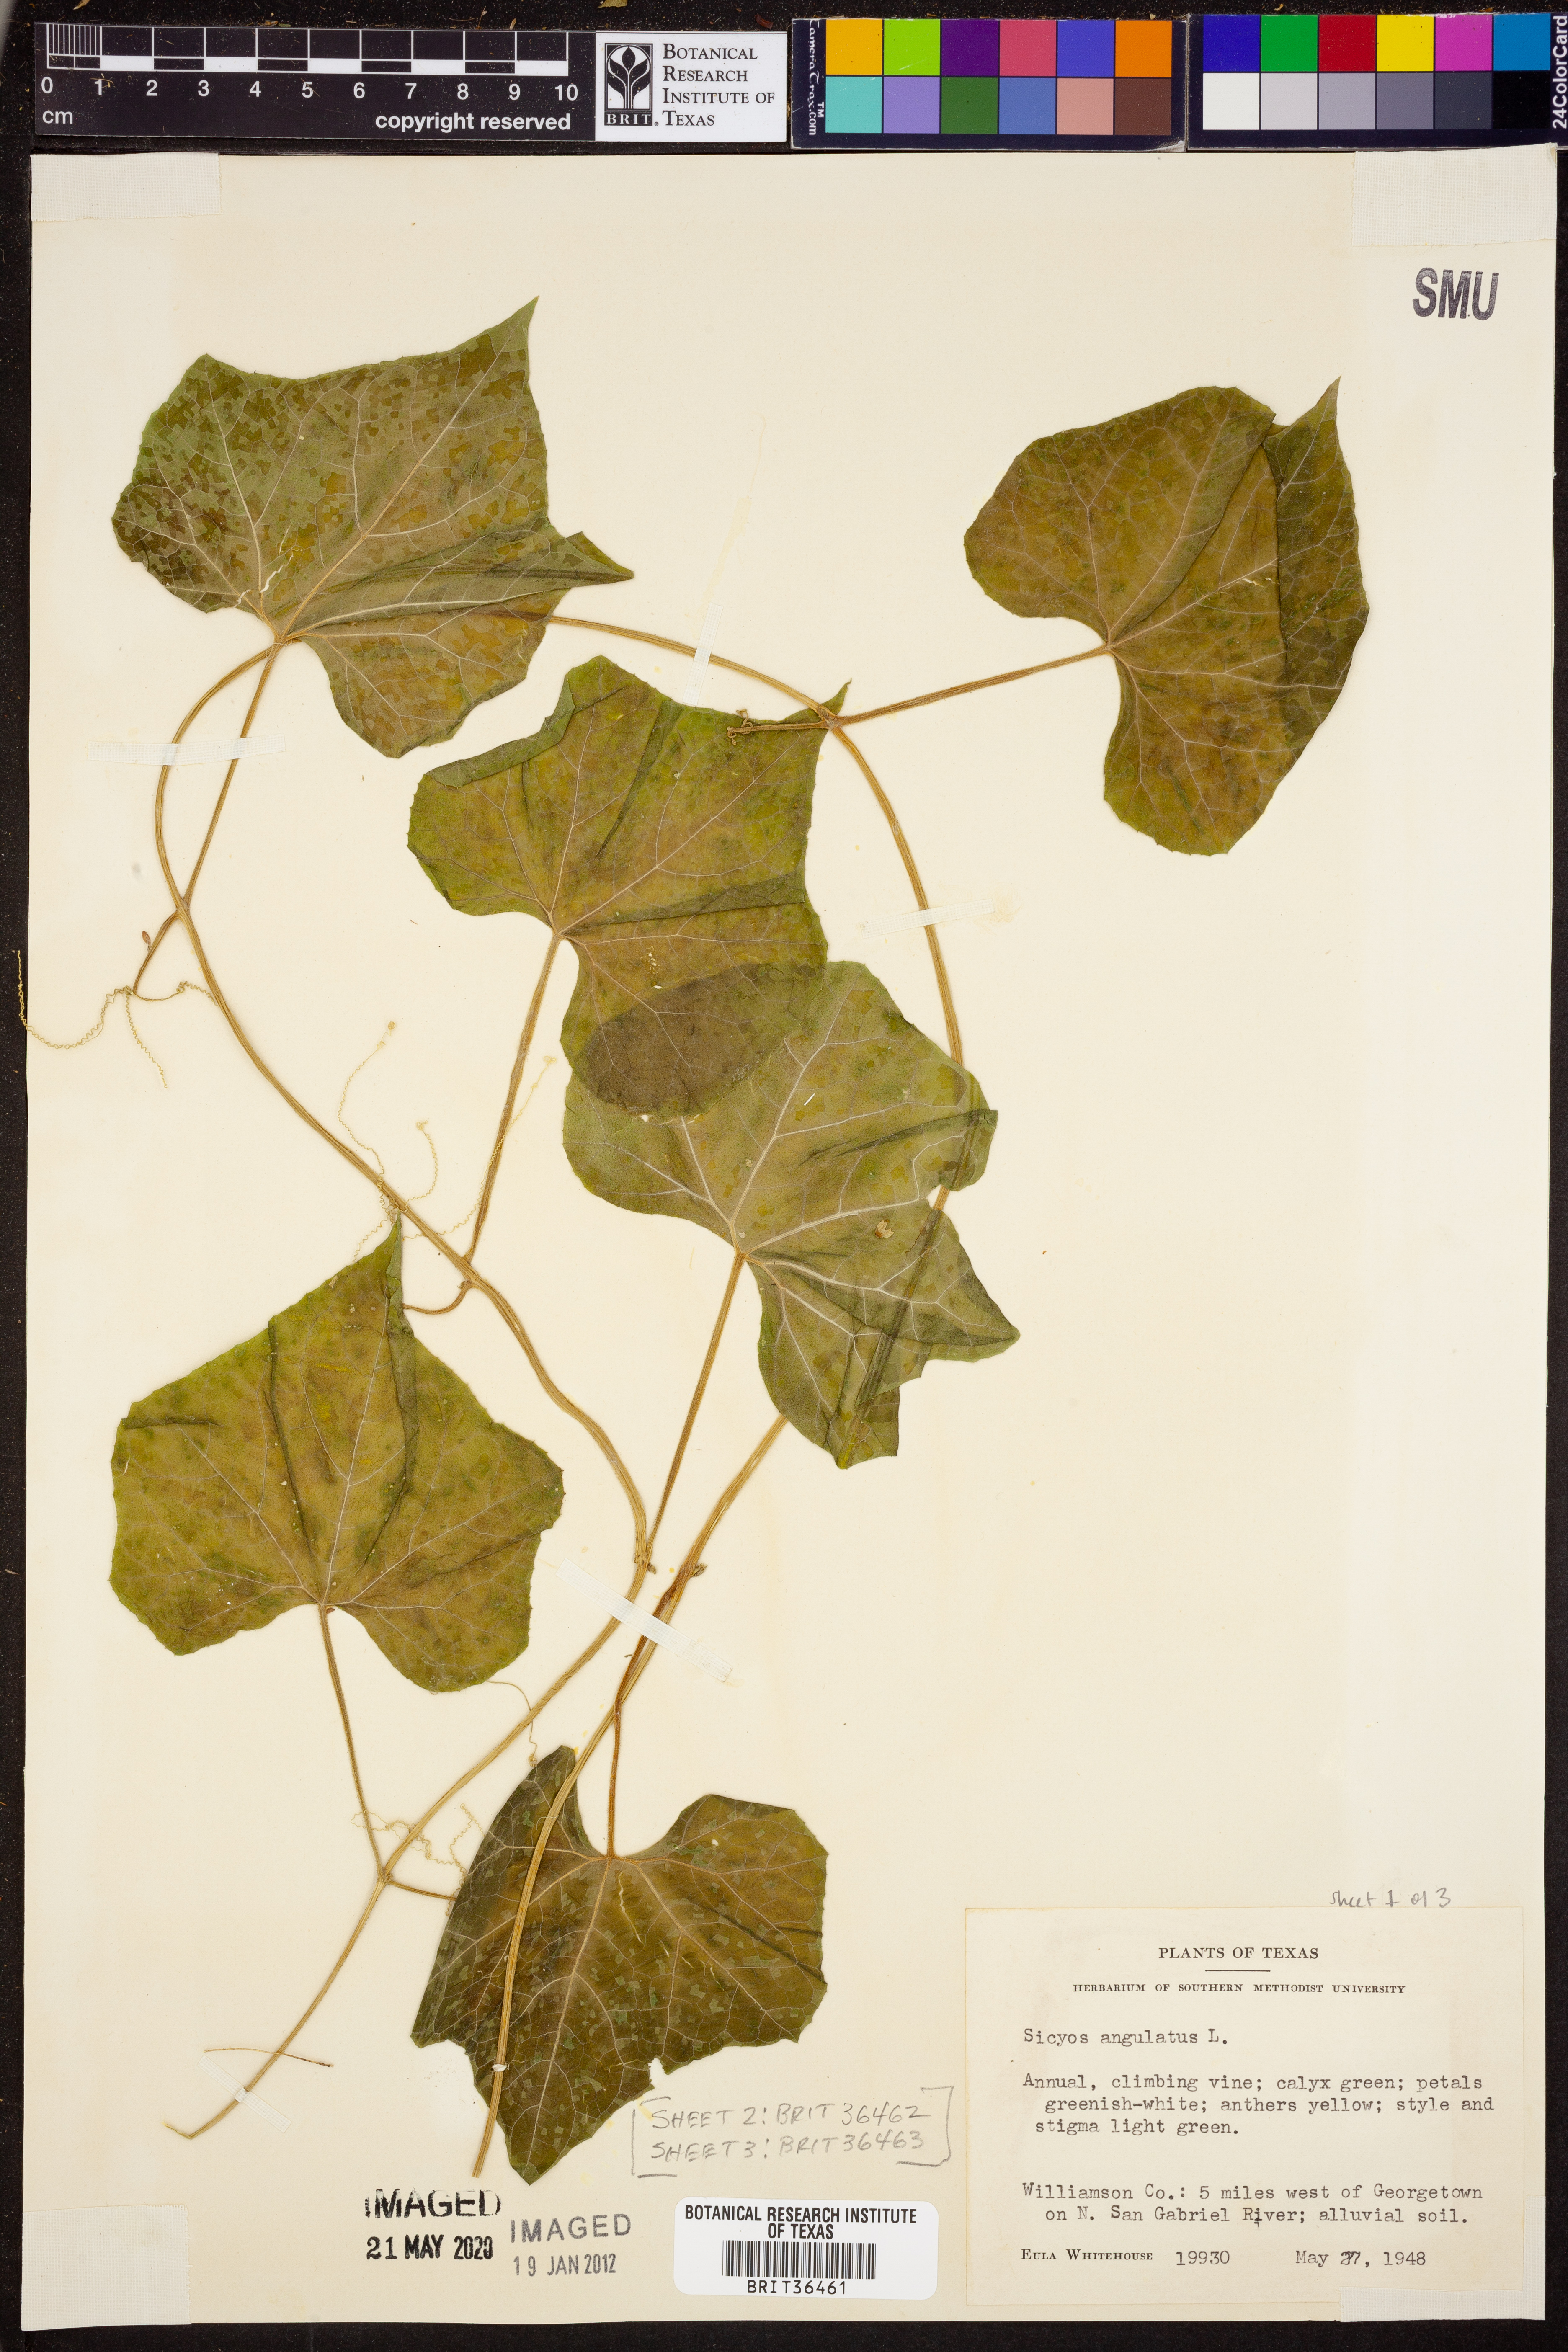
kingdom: Plantae
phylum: Tracheophyta
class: Magnoliopsida
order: Cucurbitales
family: Cucurbitaceae
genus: Sicyos
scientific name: Sicyos angulatus
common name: Angled burr cucumber
